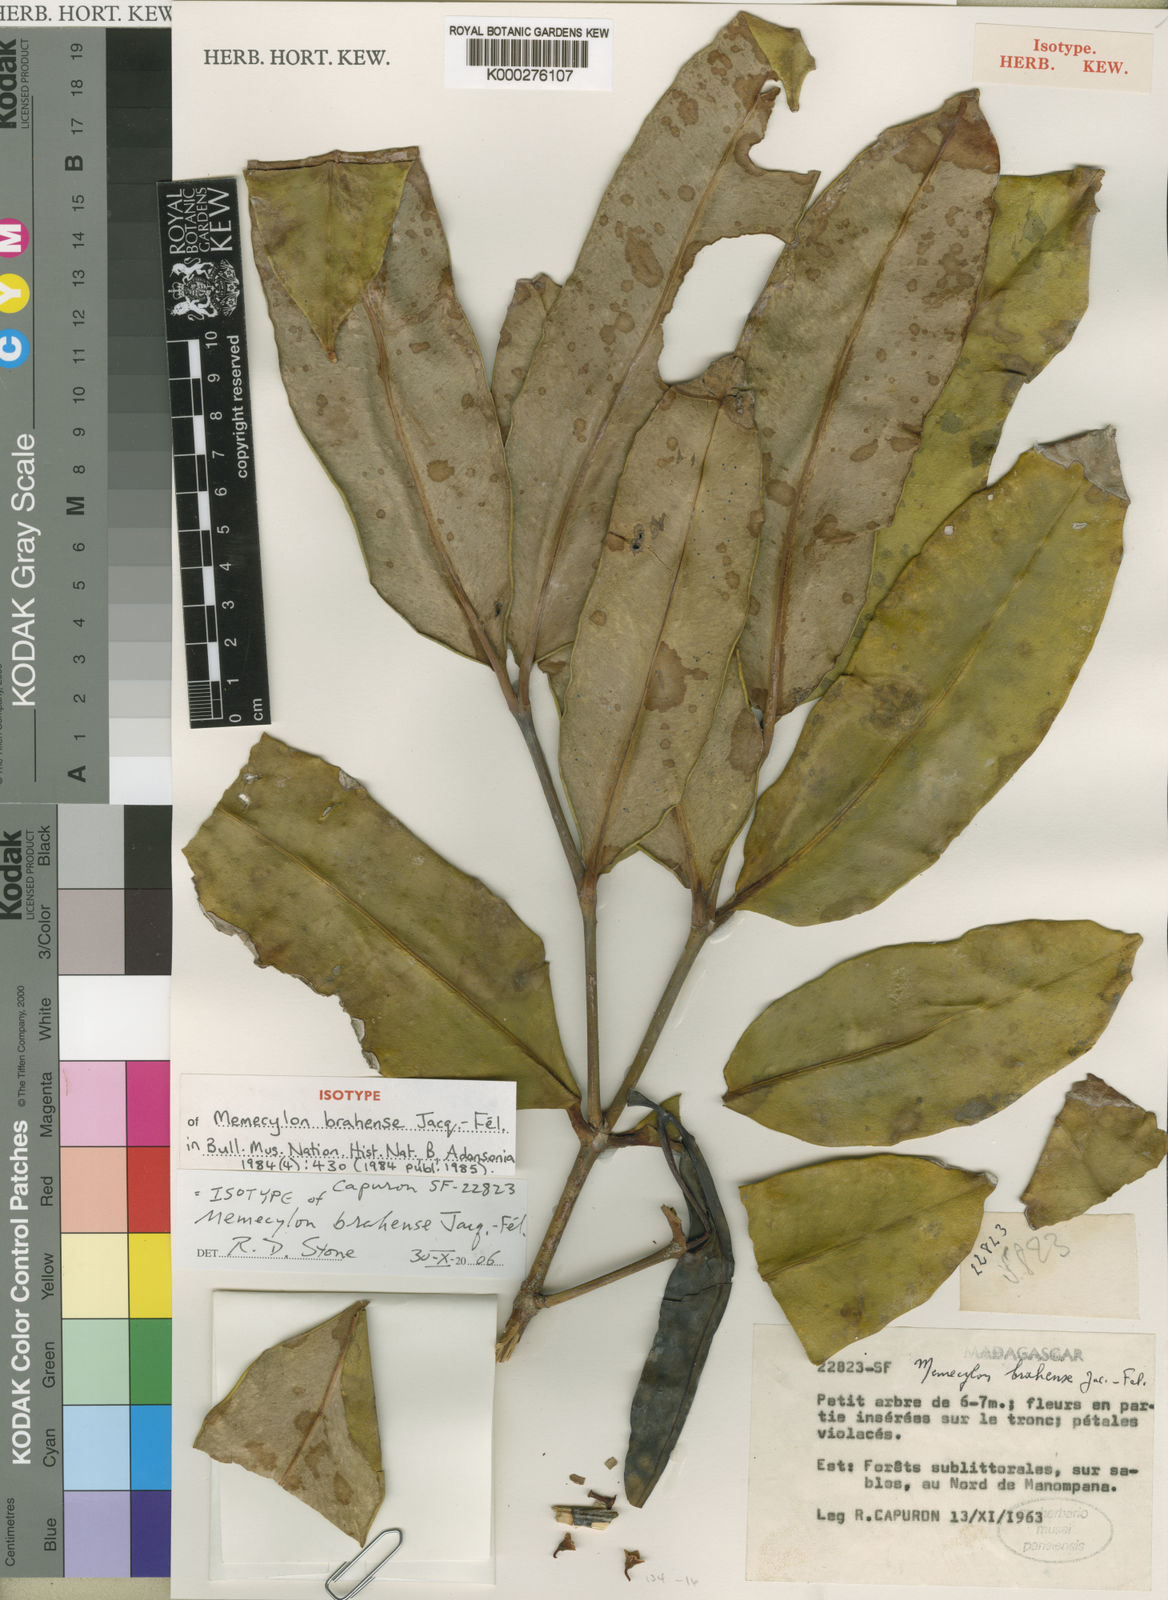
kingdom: Plantae
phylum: Tracheophyta
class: Magnoliopsida
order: Myrtales
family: Melastomataceae
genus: Memecylon
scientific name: Memecylon
